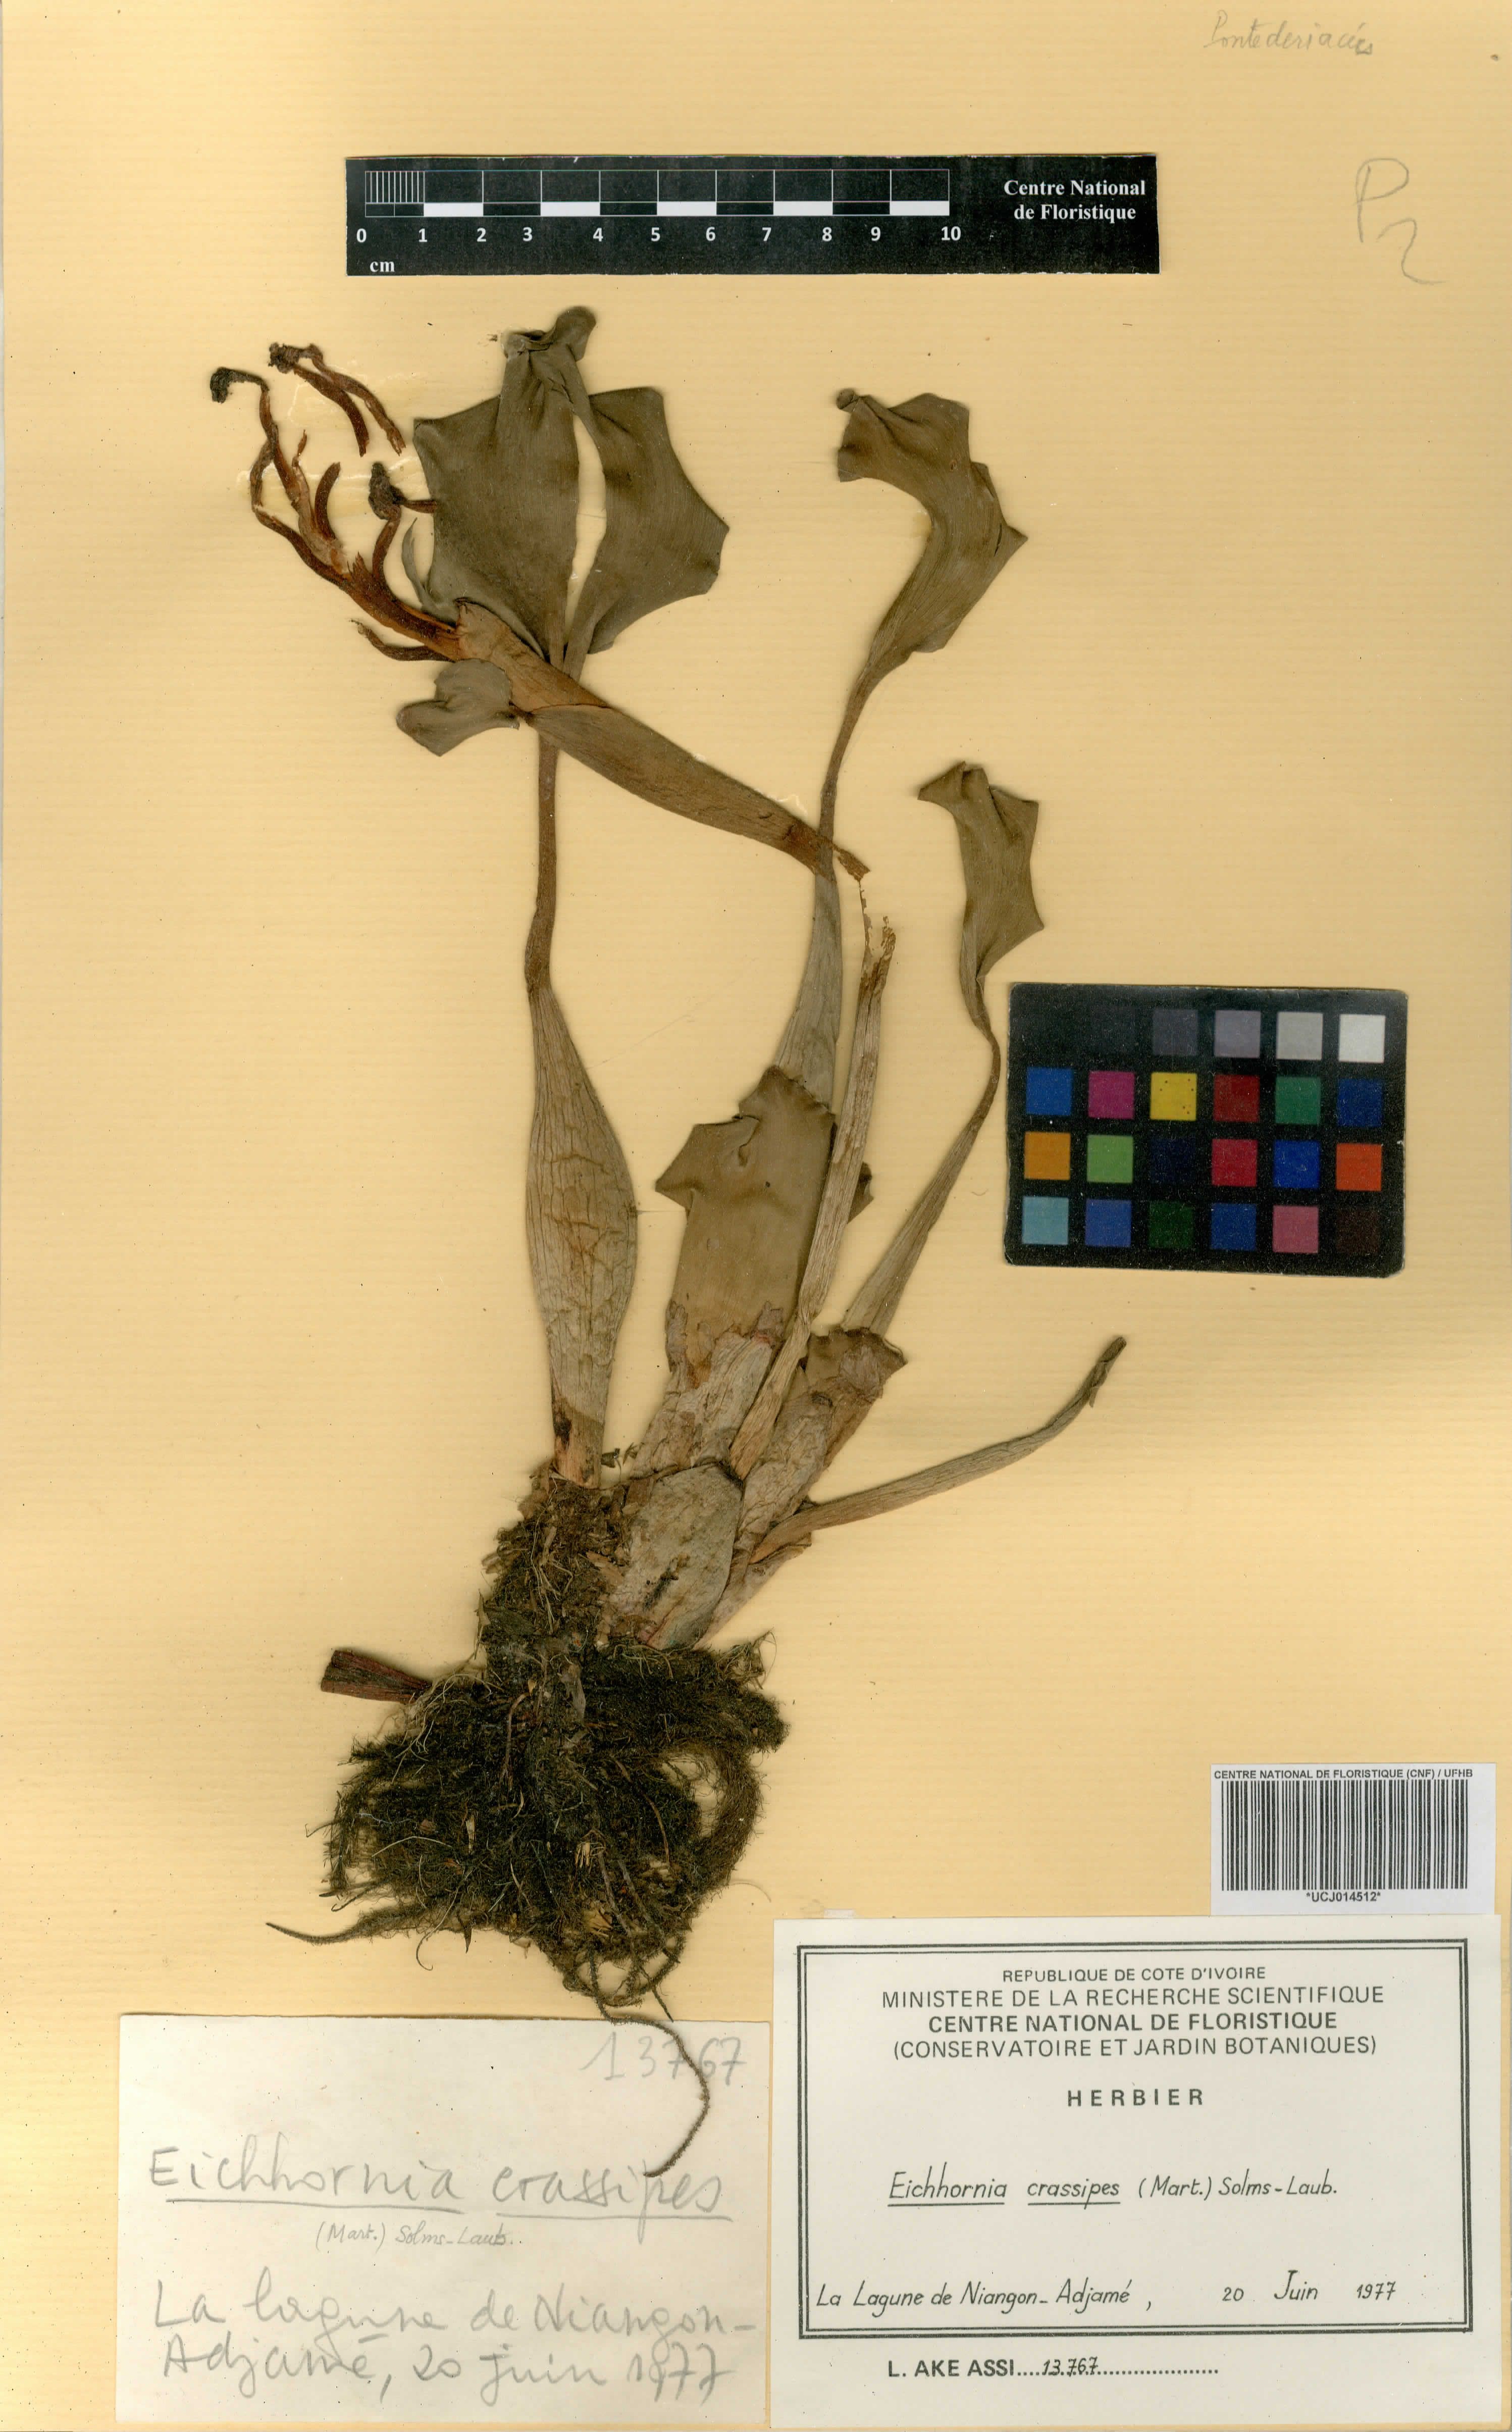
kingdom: Plantae
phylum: Tracheophyta
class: Liliopsida
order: Commelinales
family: Pontederiaceae
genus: Pontederia
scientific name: Pontederia crassipes
